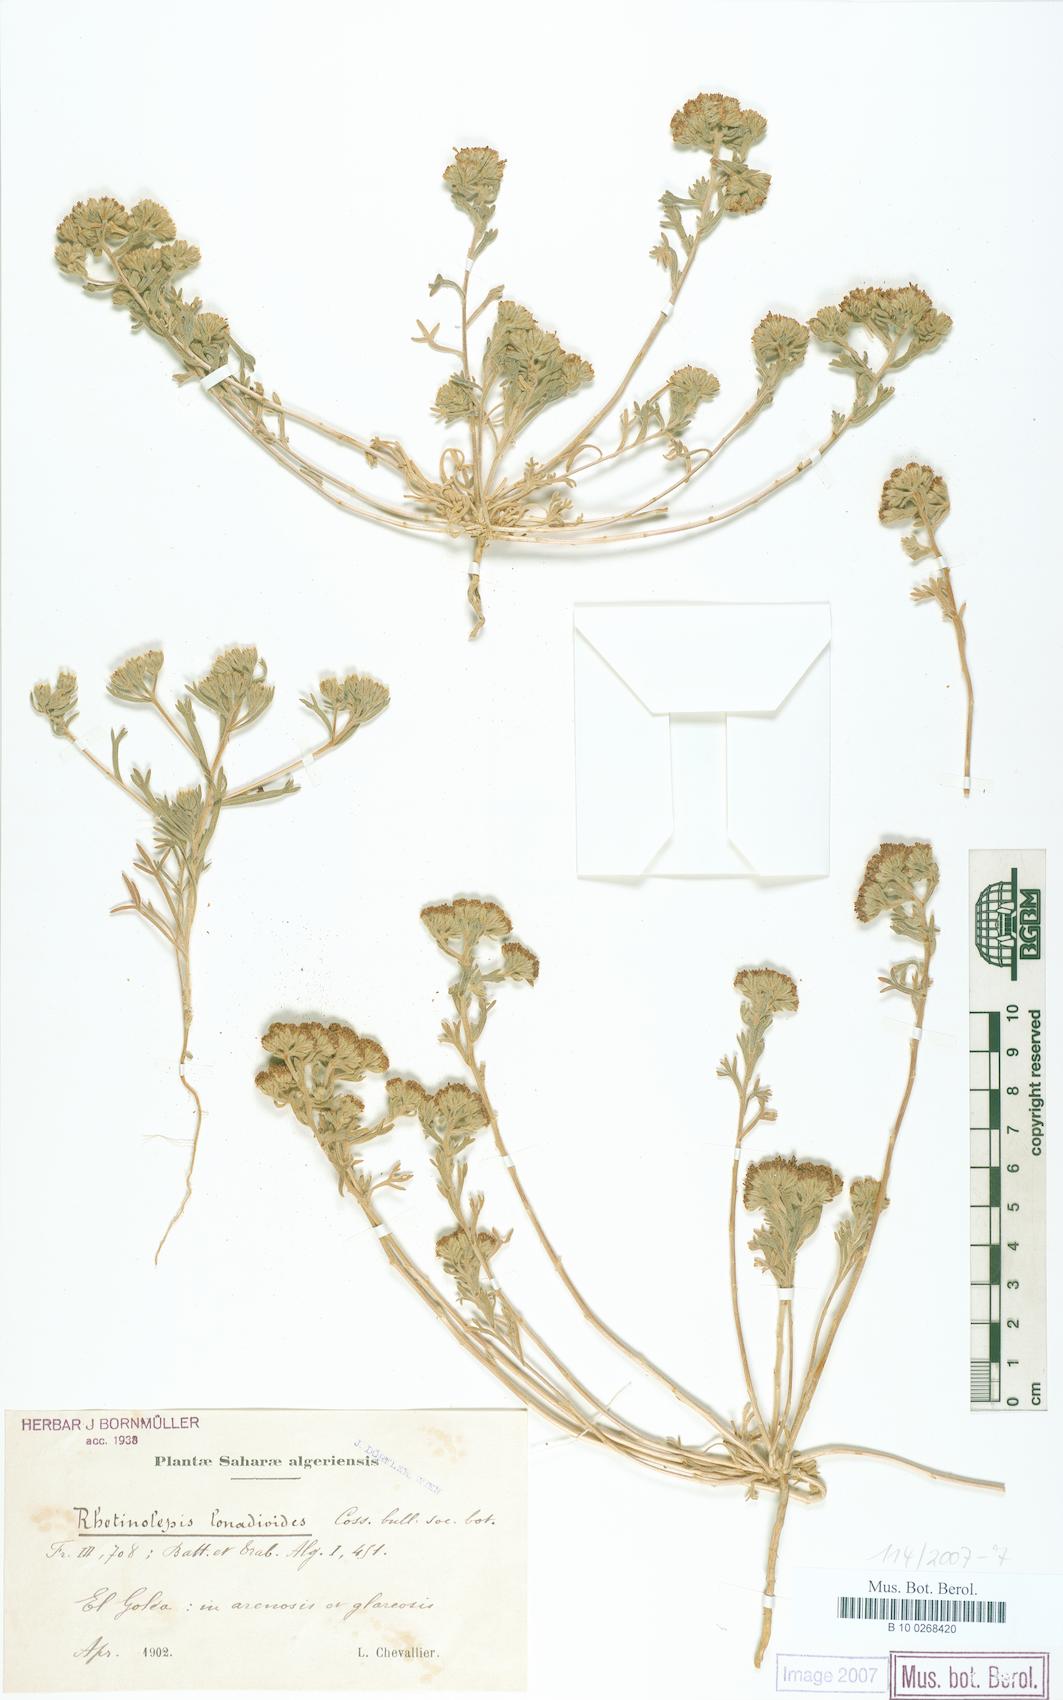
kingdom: Plantae
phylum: Tracheophyta
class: Magnoliopsida
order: Asterales
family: Asteraceae
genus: Rhetinolepis
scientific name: Rhetinolepis lonadioides
